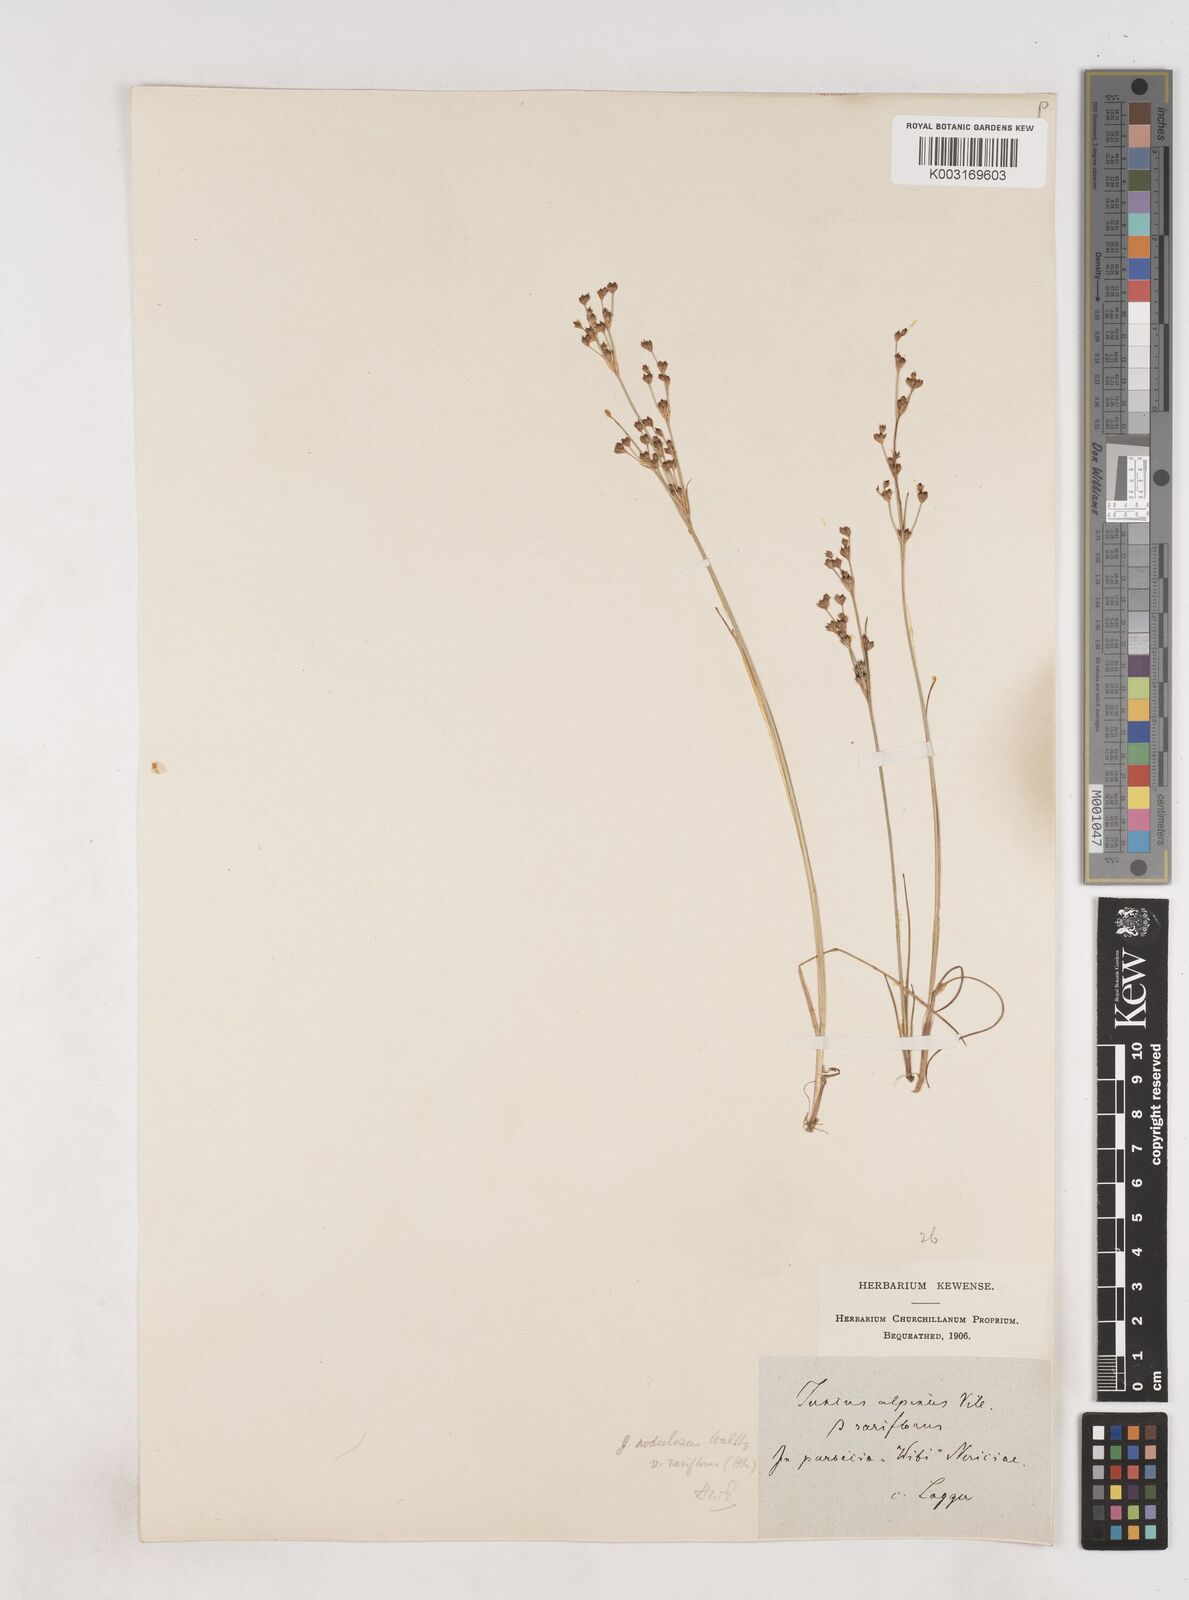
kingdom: Plantae
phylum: Tracheophyta
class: Liliopsida
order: Poales
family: Juncaceae
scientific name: Juncaceae
